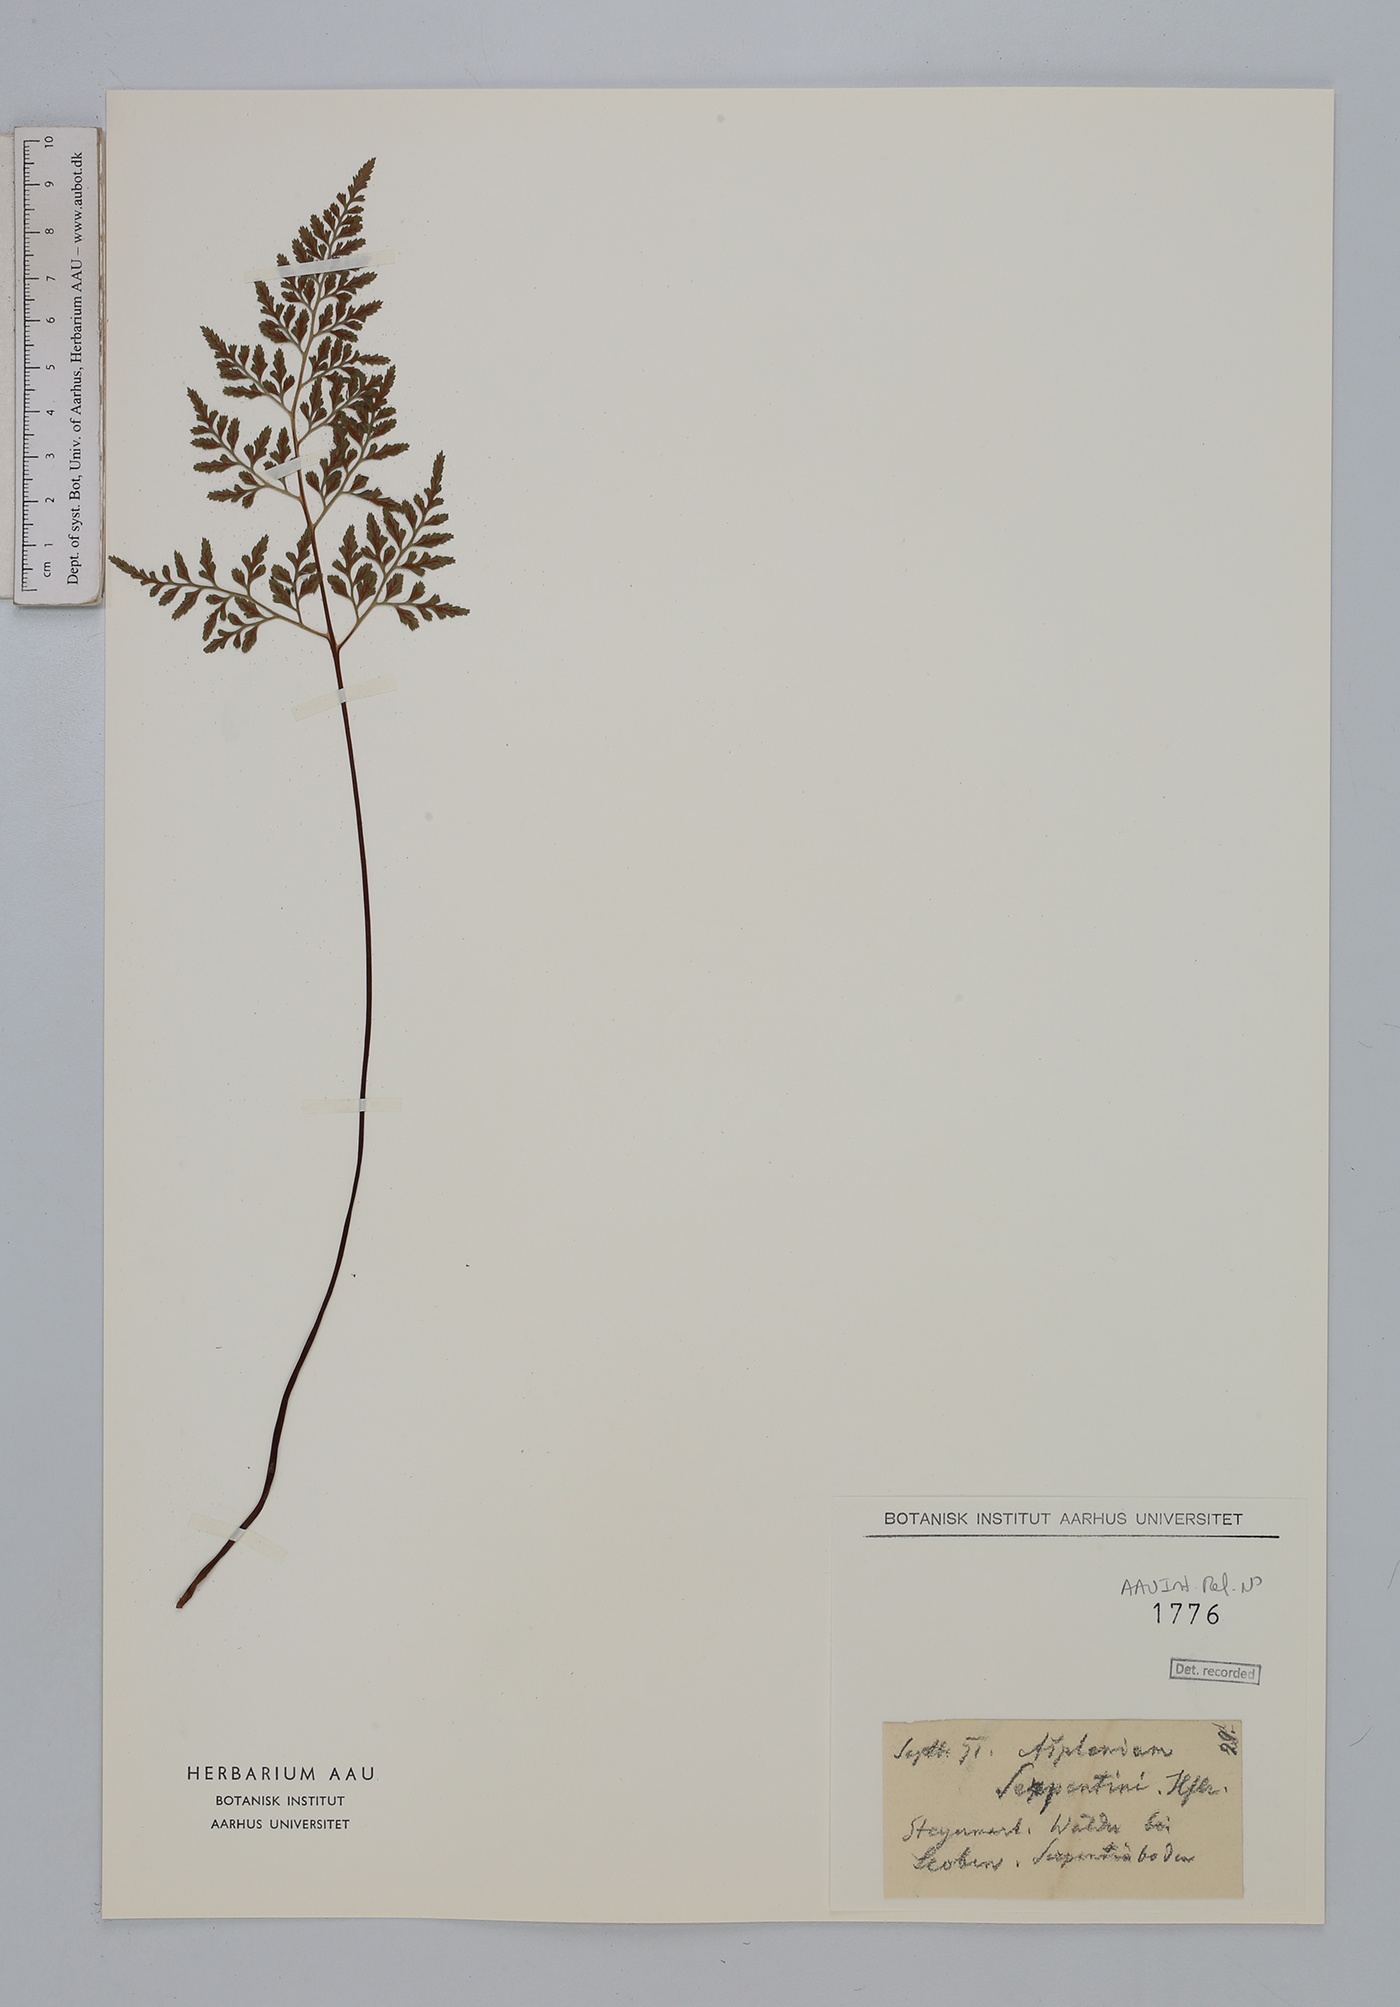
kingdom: Plantae
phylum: Tracheophyta
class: Polypodiopsida
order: Polypodiales
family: Aspleniaceae
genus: Asplenium
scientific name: Asplenium cuneifolium
